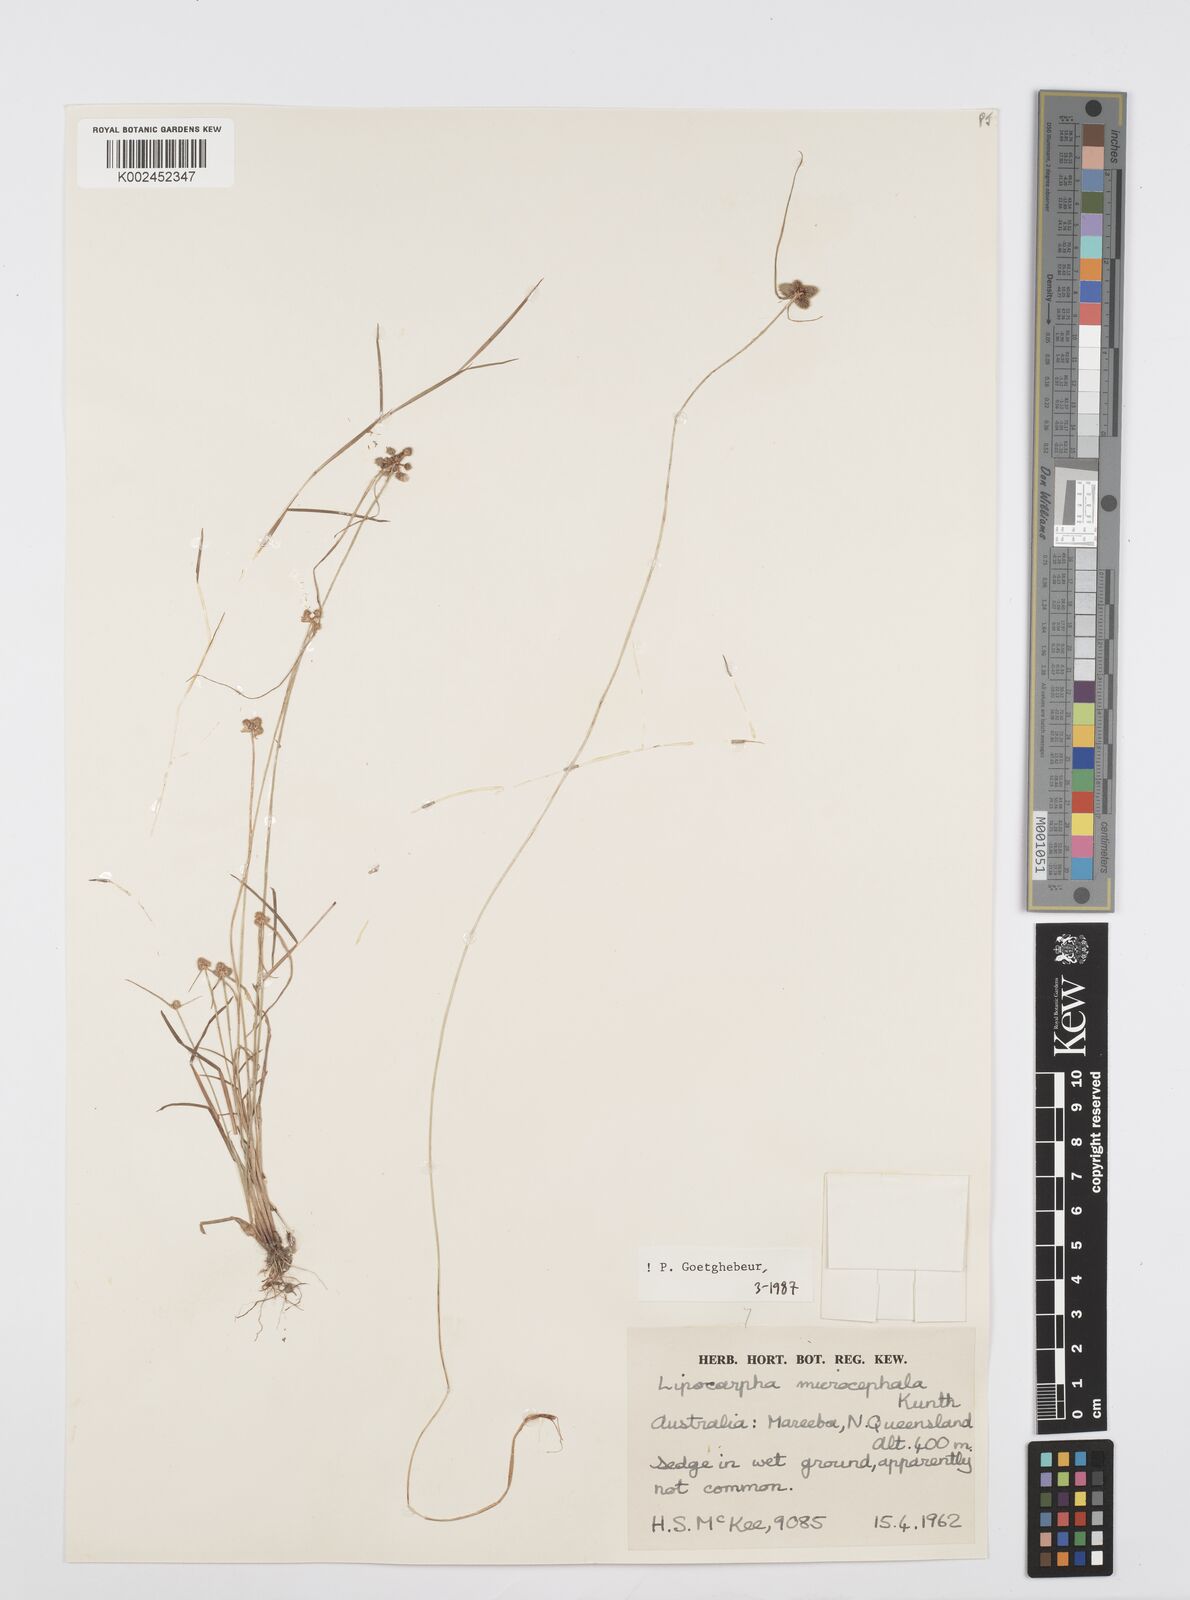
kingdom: Plantae
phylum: Tracheophyta
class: Liliopsida
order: Poales
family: Cyperaceae
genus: Cyperus
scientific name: Cyperus microcephalus
